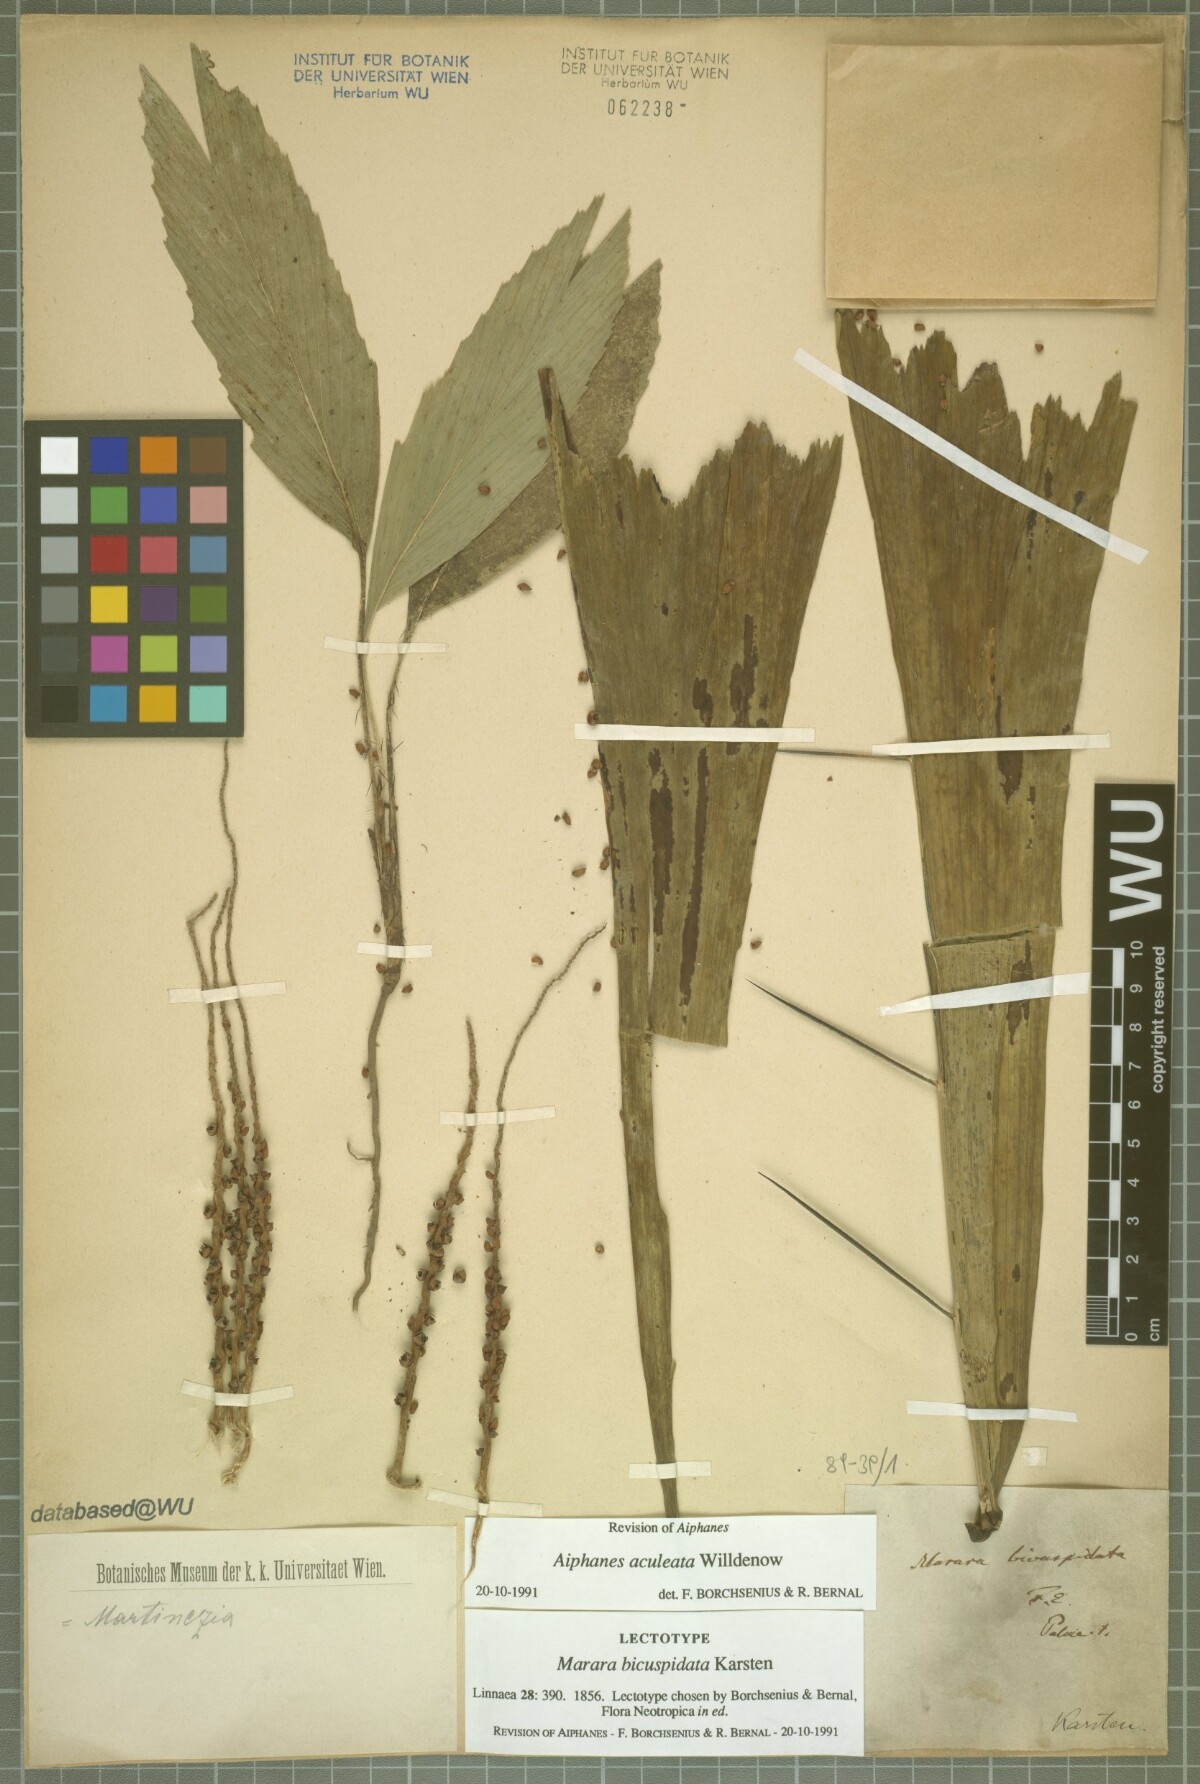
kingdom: Plantae
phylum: Tracheophyta
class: Liliopsida
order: Arecales
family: Arecaceae
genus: Aiphanes
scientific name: Aiphanes horrida
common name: Ruffle palm
